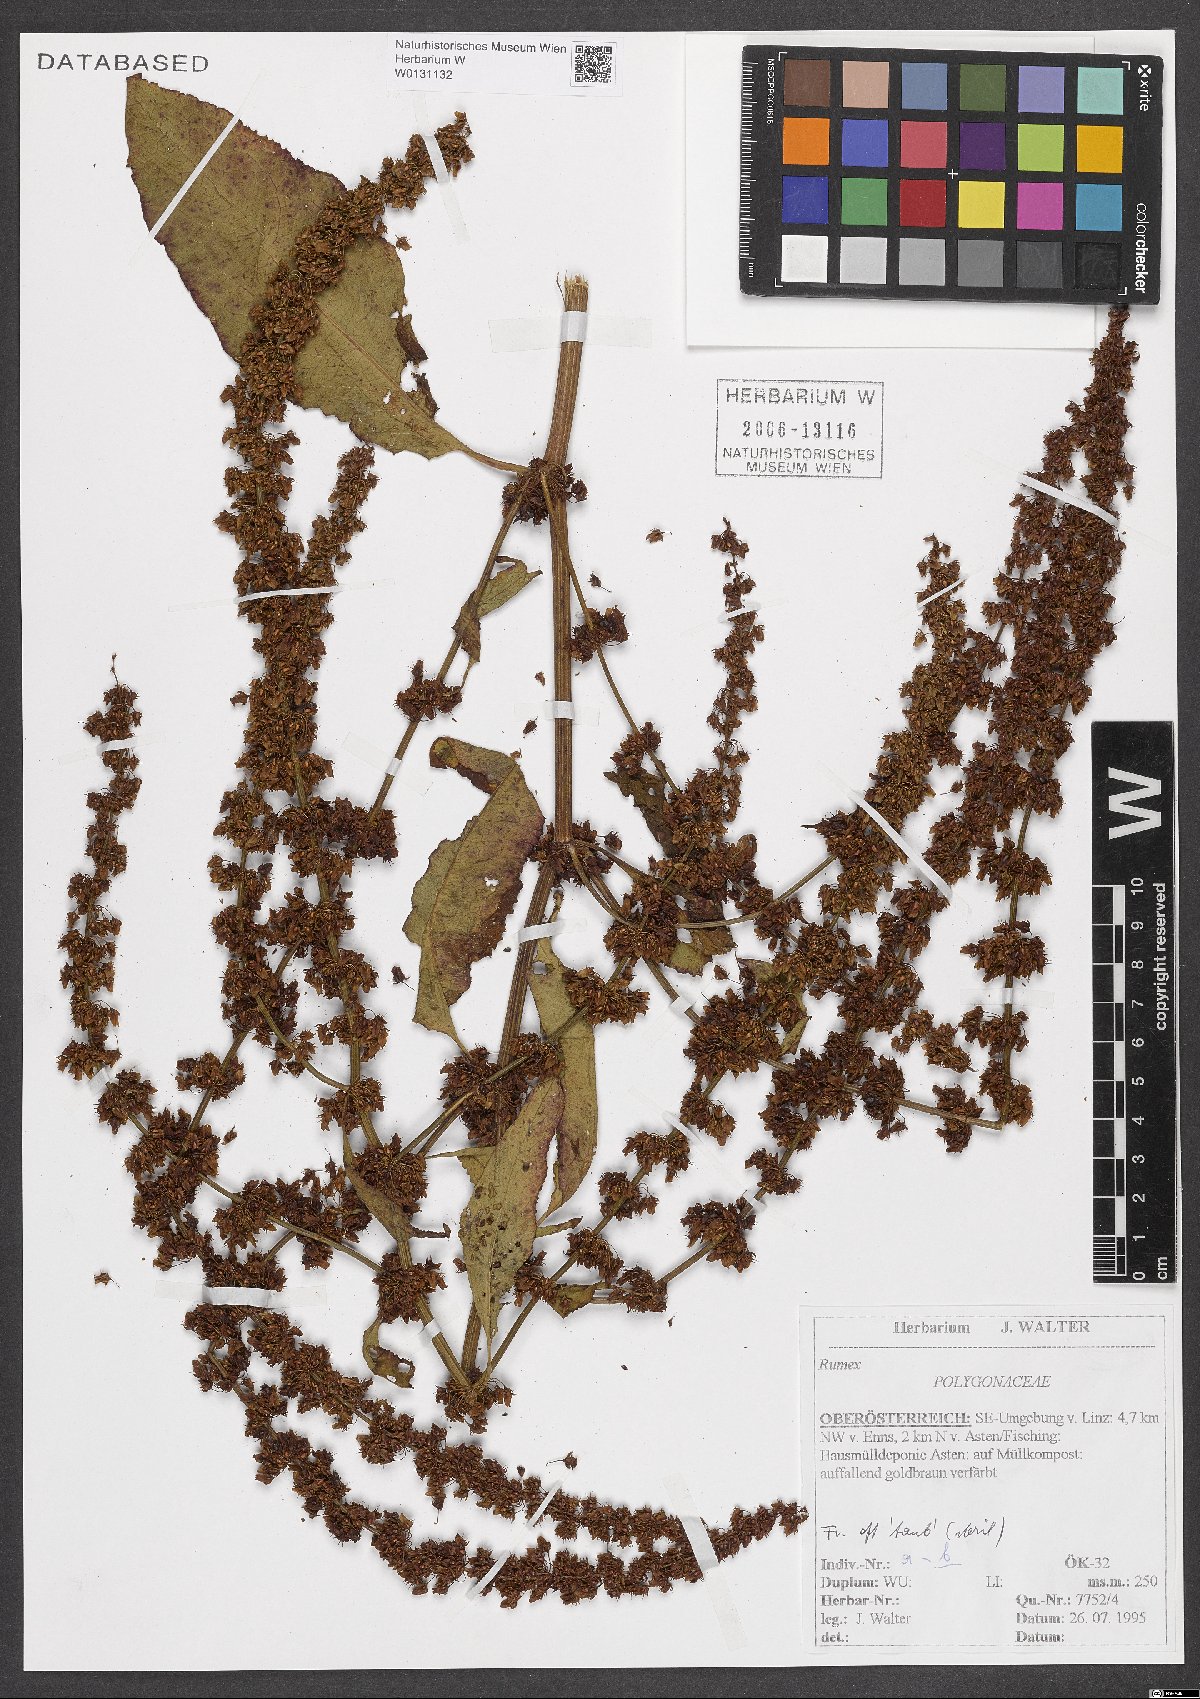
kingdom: Plantae
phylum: Tracheophyta
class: Magnoliopsida
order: Caryophyllales
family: Polygonaceae
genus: Rumex
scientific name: Rumex
